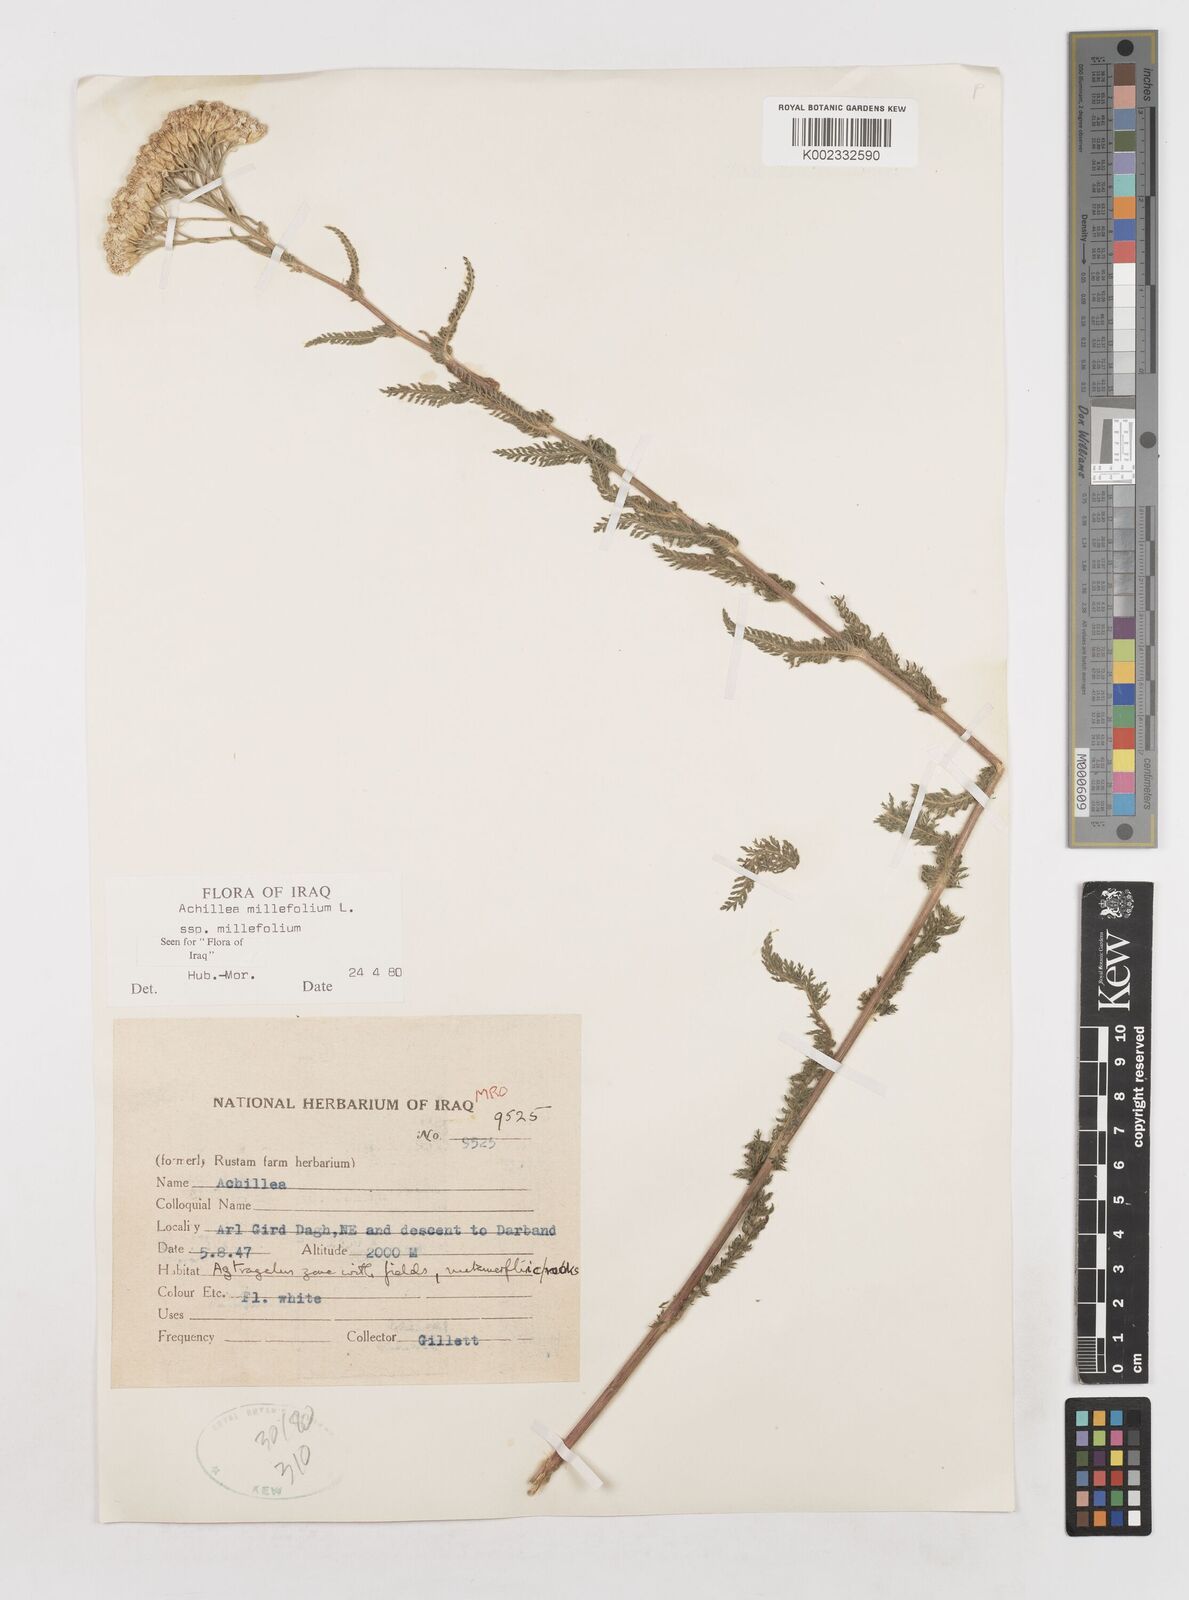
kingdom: Plantae
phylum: Tracheophyta
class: Magnoliopsida
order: Asterales
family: Asteraceae
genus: Achillea
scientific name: Achillea millefolium
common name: Yarrow
